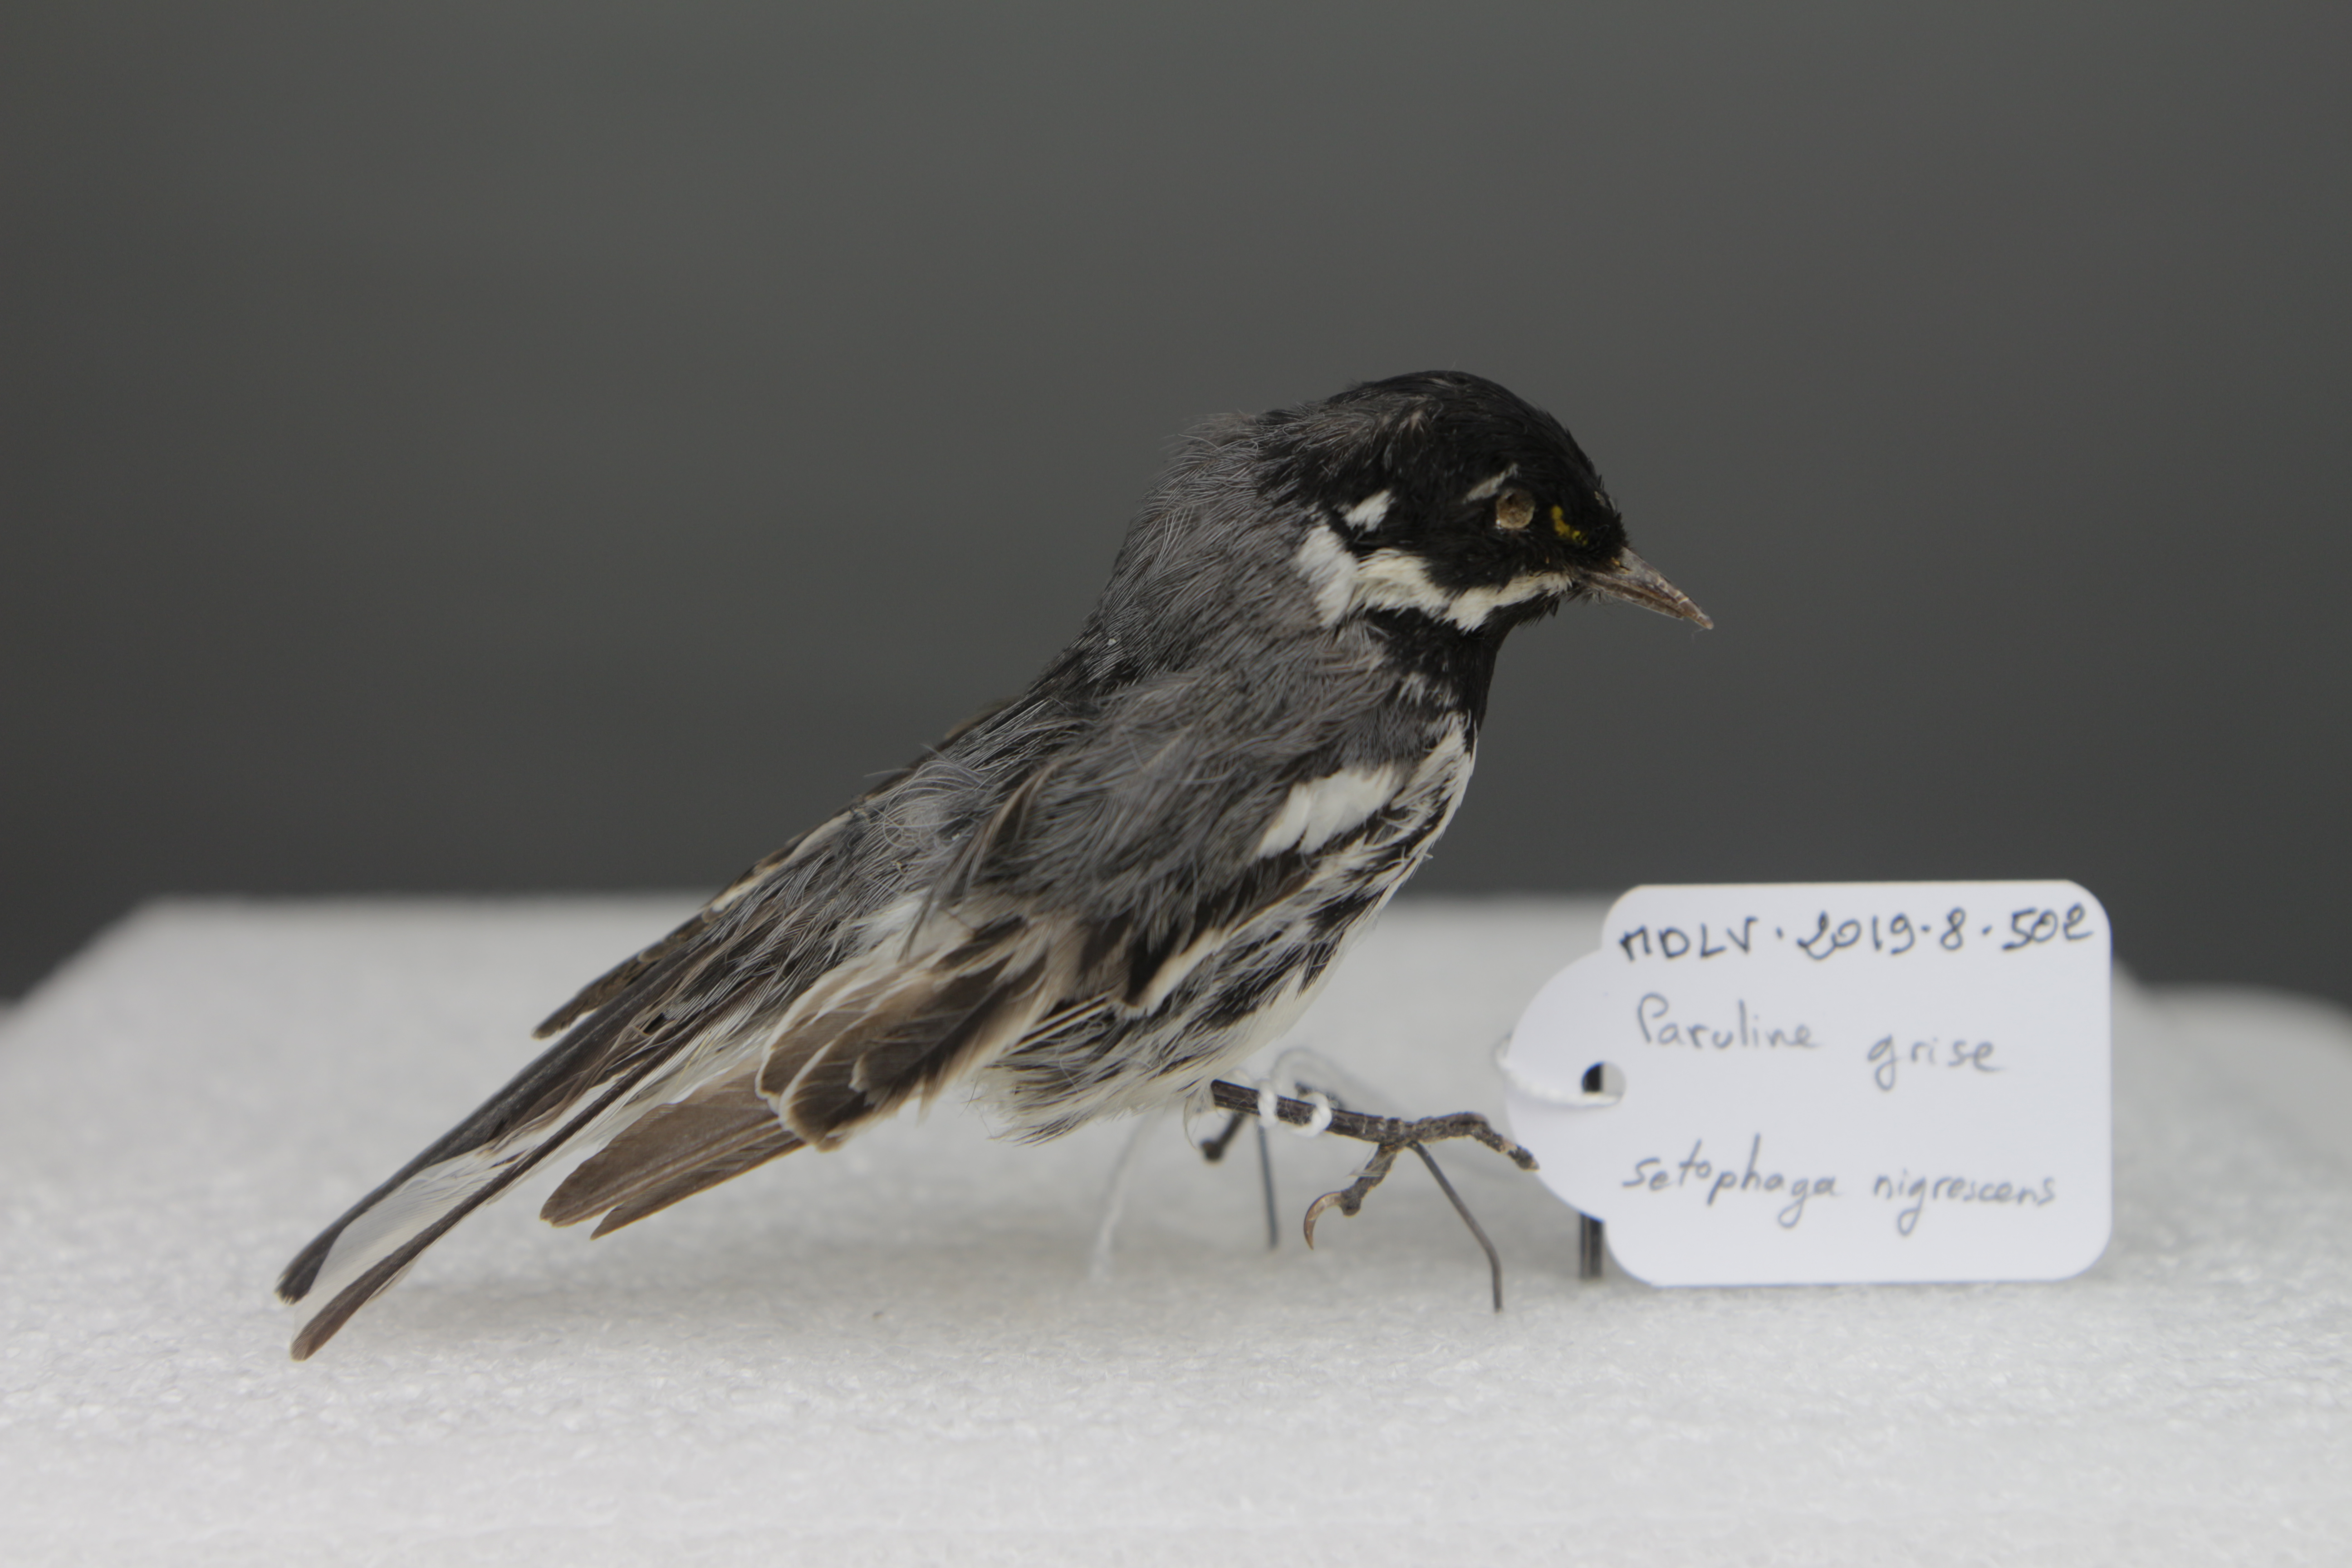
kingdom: Animalia
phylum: Chordata
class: Aves
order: Passeriformes
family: Parulidae
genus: Setophaga
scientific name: Setophaga nigrescens
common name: Black-throated gray warbler
